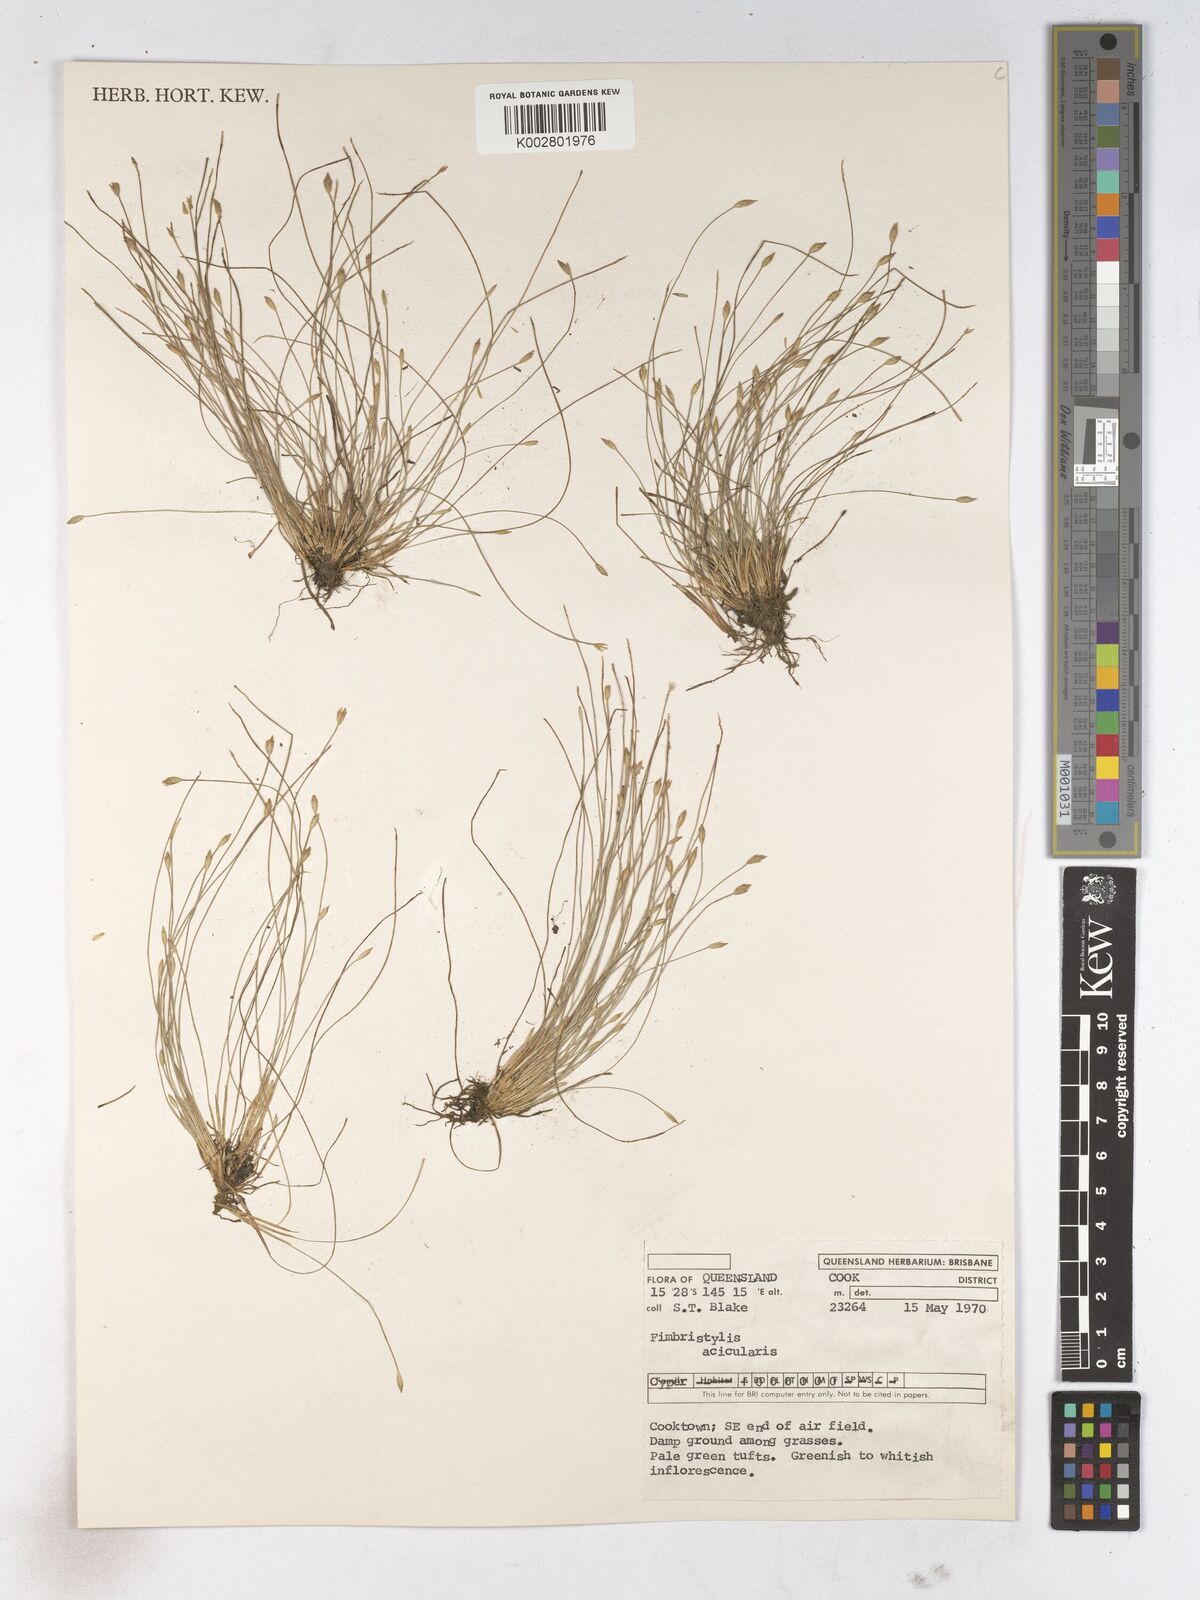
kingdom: Plantae
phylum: Tracheophyta
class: Liliopsida
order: Poales
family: Cyperaceae
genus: Fimbristylis
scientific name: Fimbristylis acicularis
